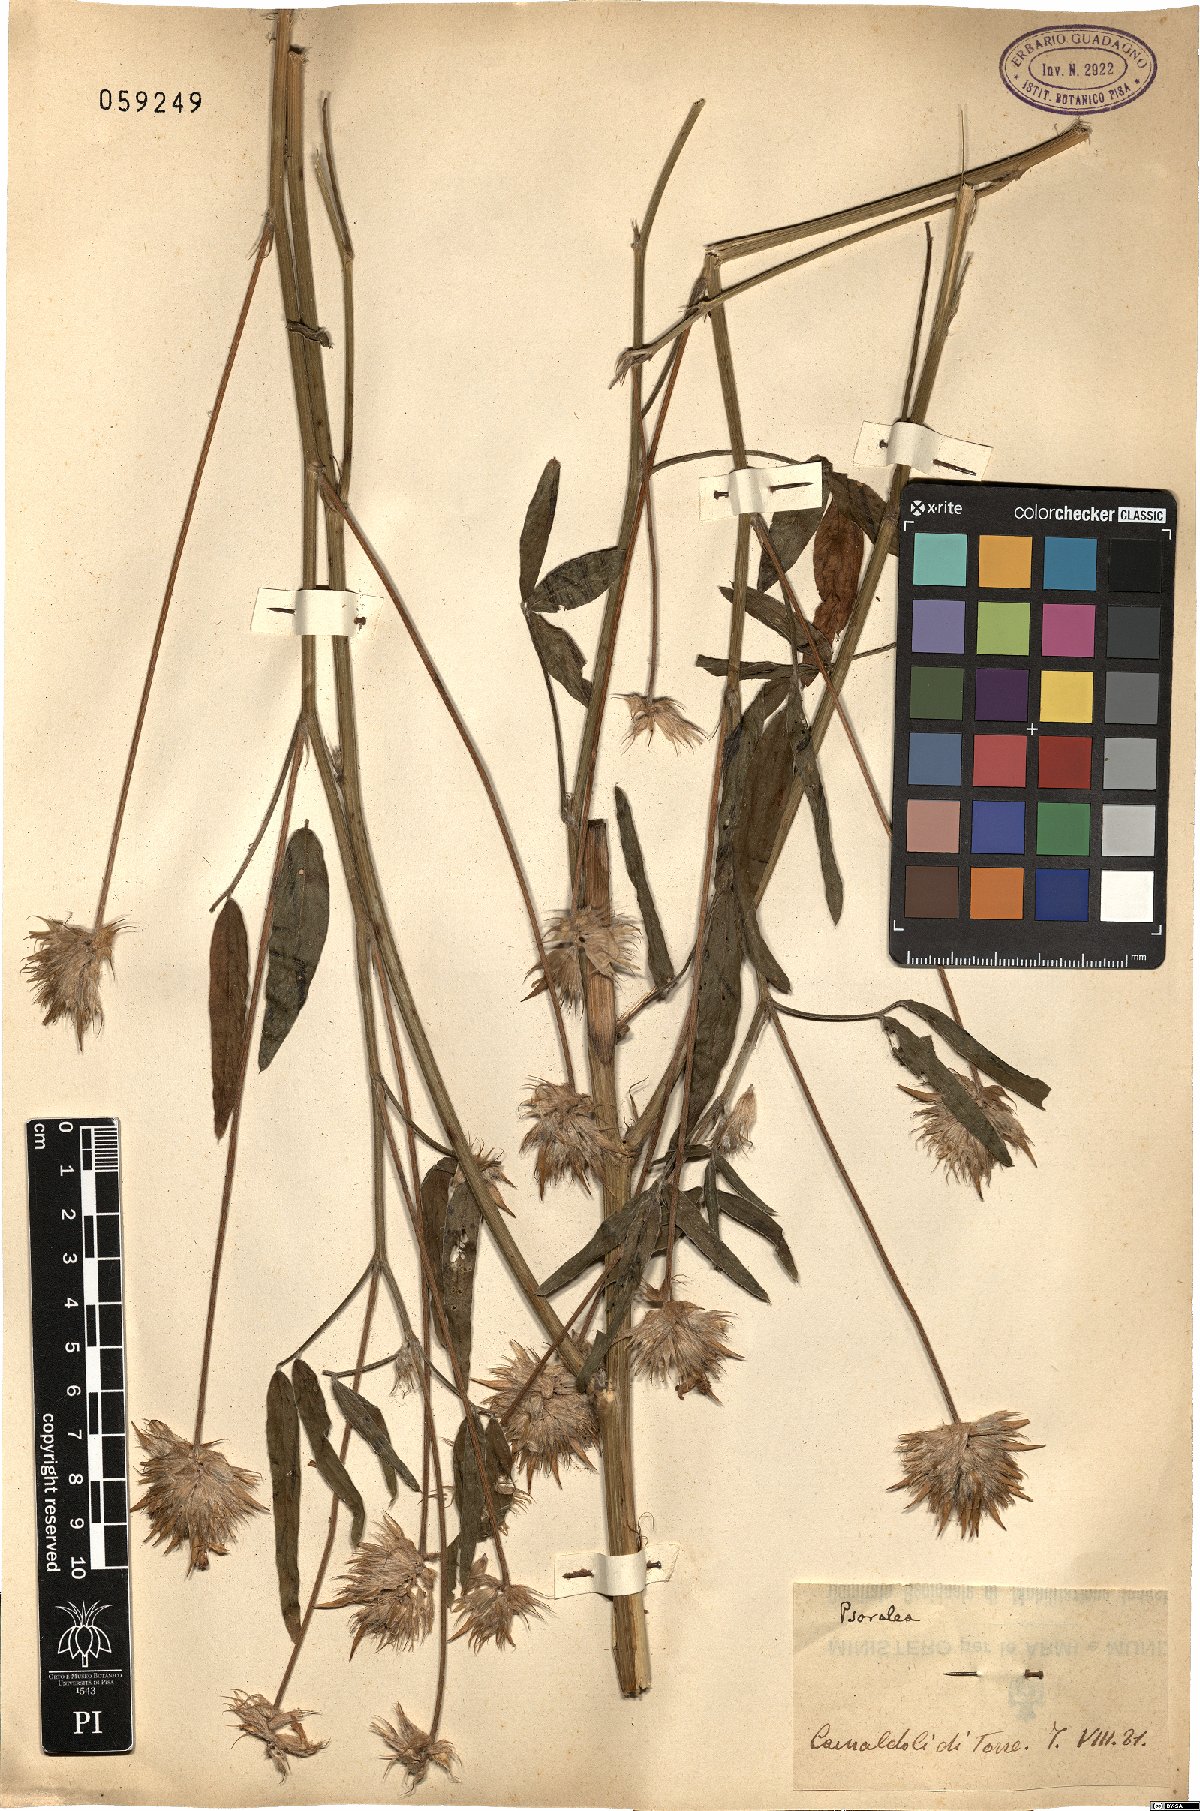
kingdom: Plantae
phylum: Tracheophyta
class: Magnoliopsida
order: Fabales
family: Fabaceae
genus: Psoralea
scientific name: Psoralea
